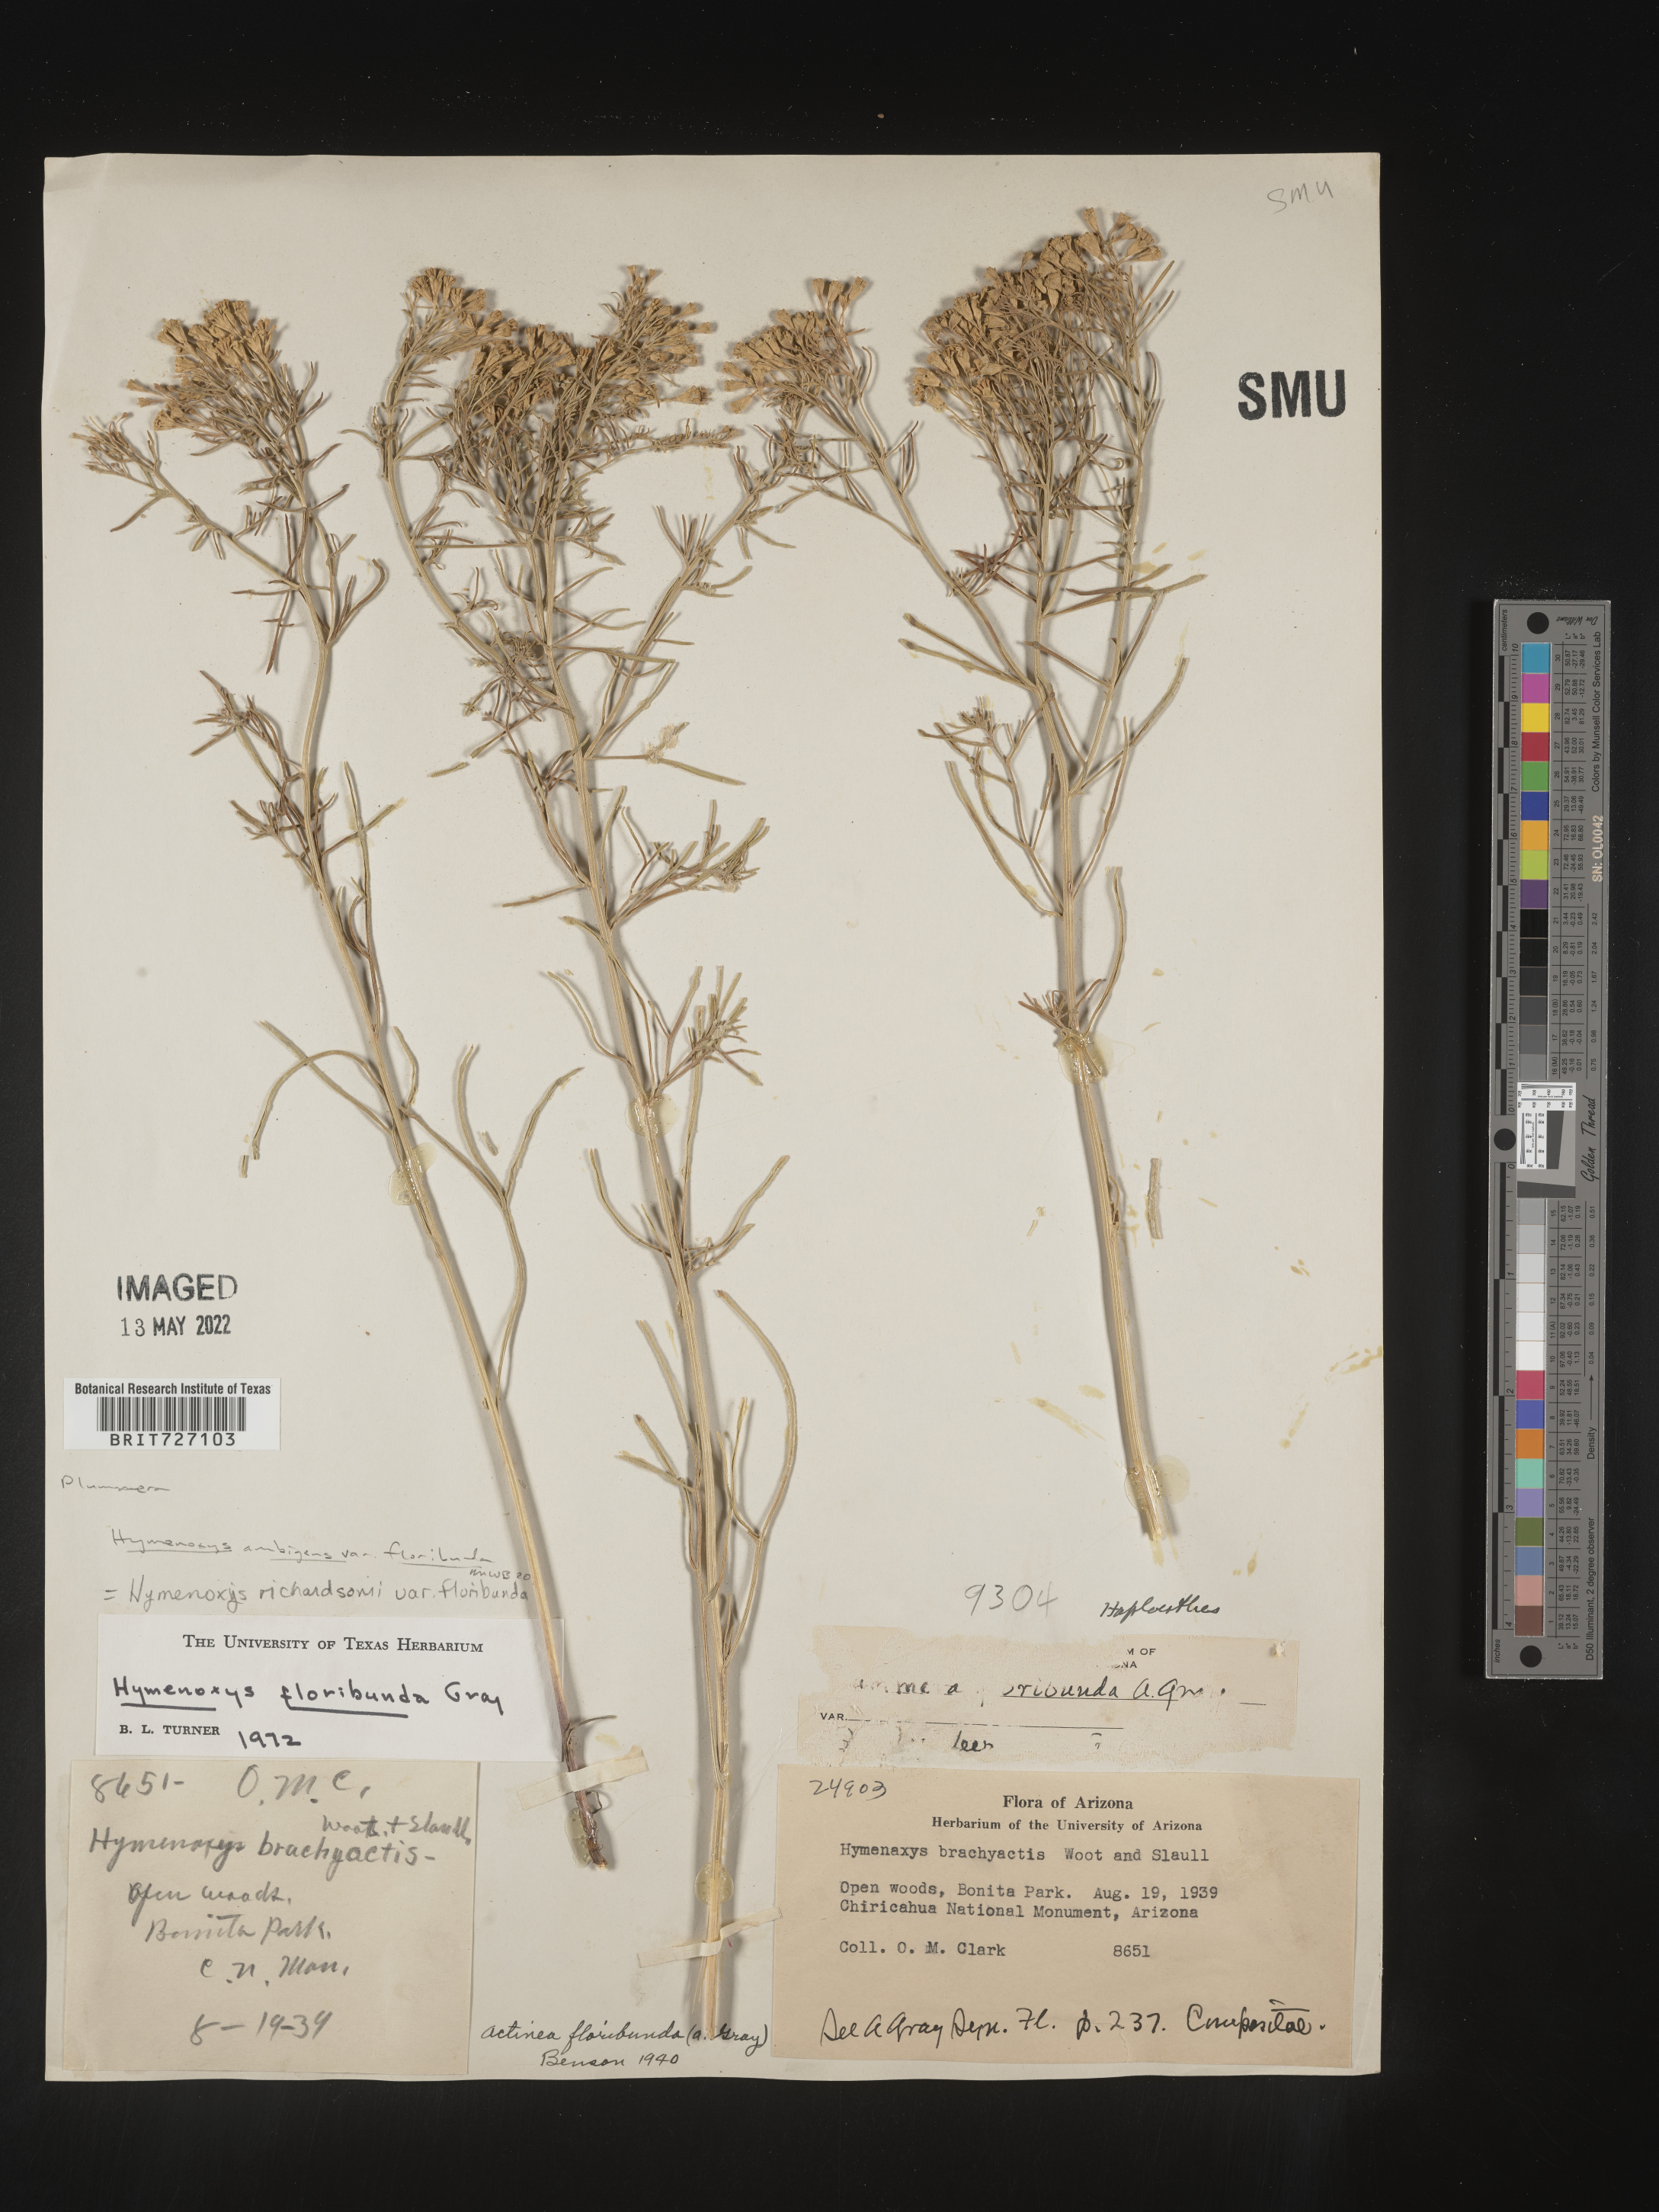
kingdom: Plantae
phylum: Tracheophyta
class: Magnoliopsida
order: Asterales
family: Asteraceae
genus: Hymenoxys
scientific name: Hymenoxys ambigens
